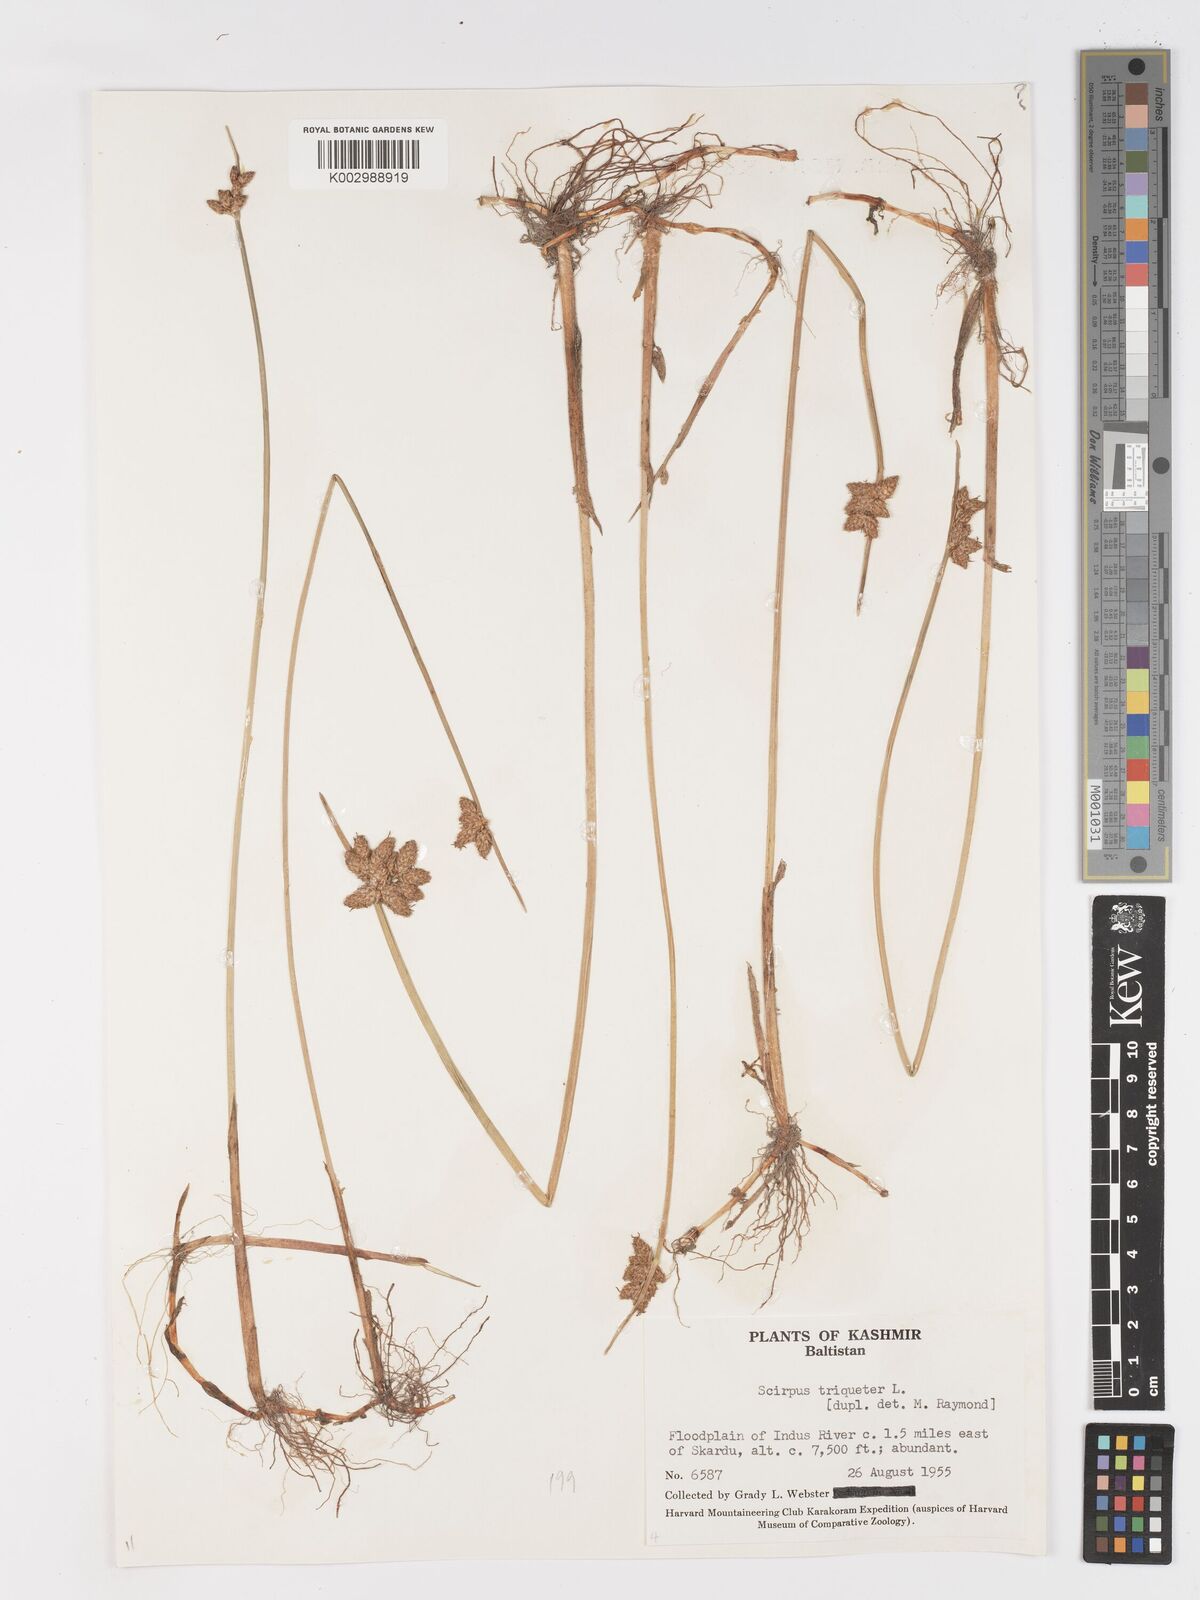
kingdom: Plantae
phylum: Tracheophyta
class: Liliopsida
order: Poales
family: Cyperaceae
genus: Schoenoplectus
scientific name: Schoenoplectus triqueter
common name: Triangular club-rush
